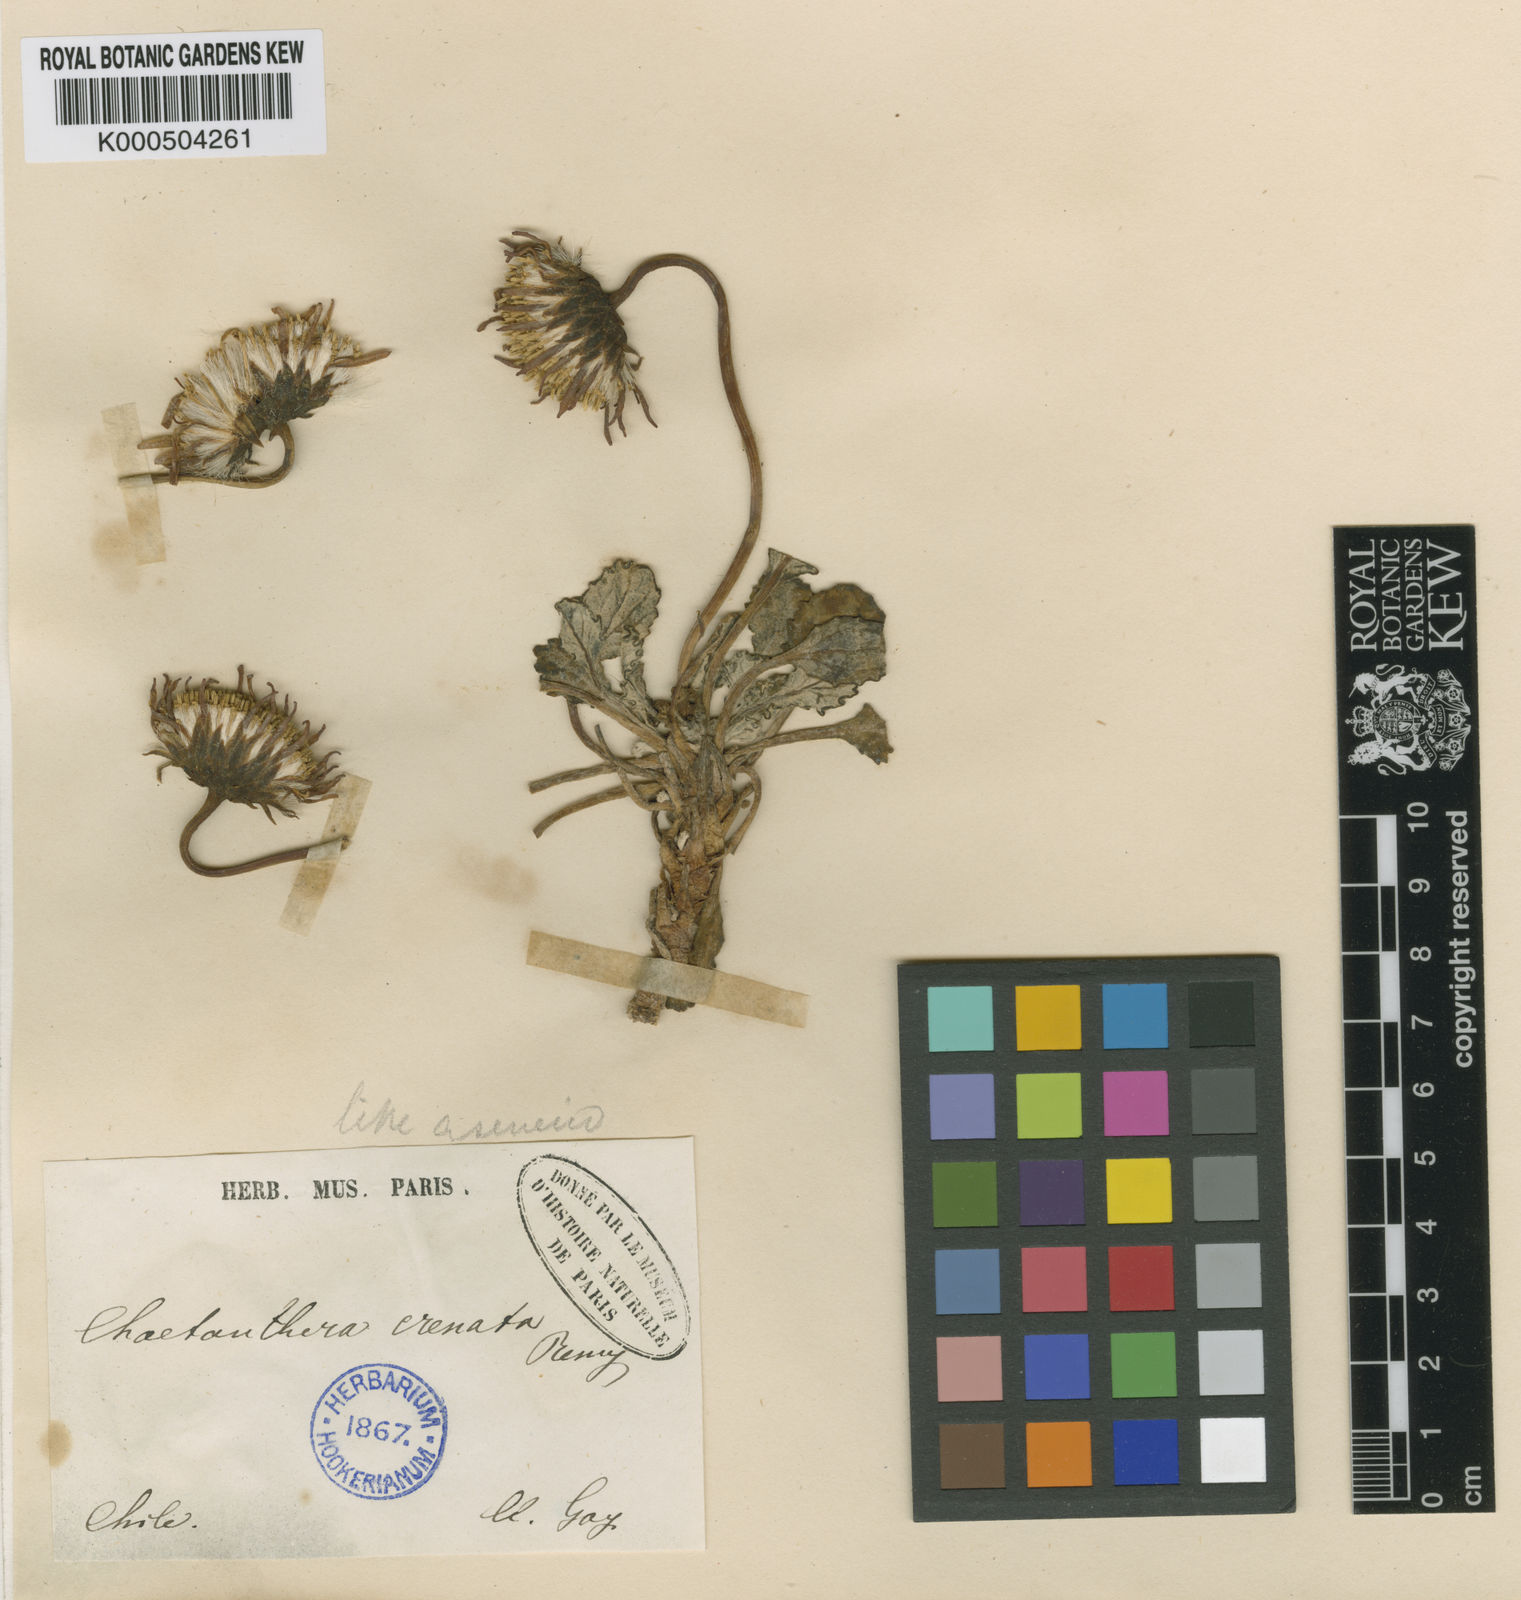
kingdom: Plantae
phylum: Tracheophyta
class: Magnoliopsida
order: Asterales
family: Asteraceae
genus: Trichocline
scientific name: Trichocline cineraria
